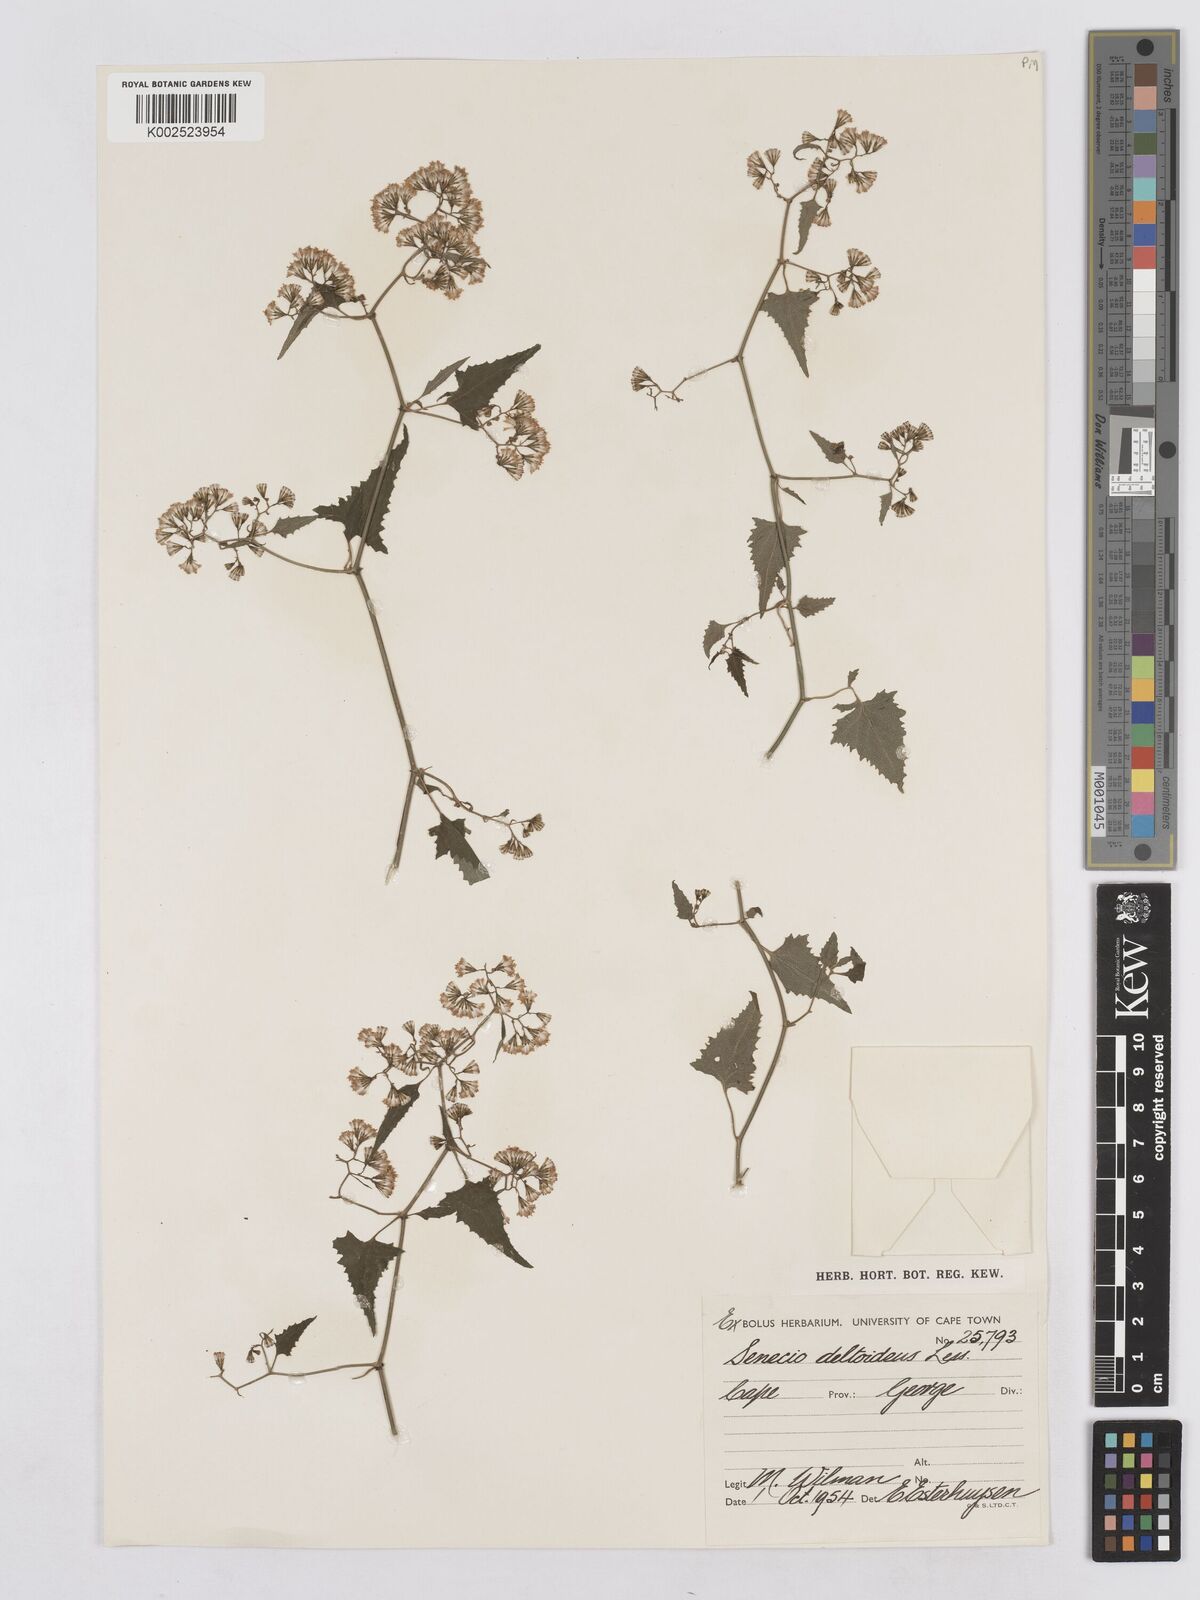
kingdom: Plantae
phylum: Tracheophyta
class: Magnoliopsida
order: Asterales
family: Asteraceae
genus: Senecio
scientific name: Senecio deltoideus
